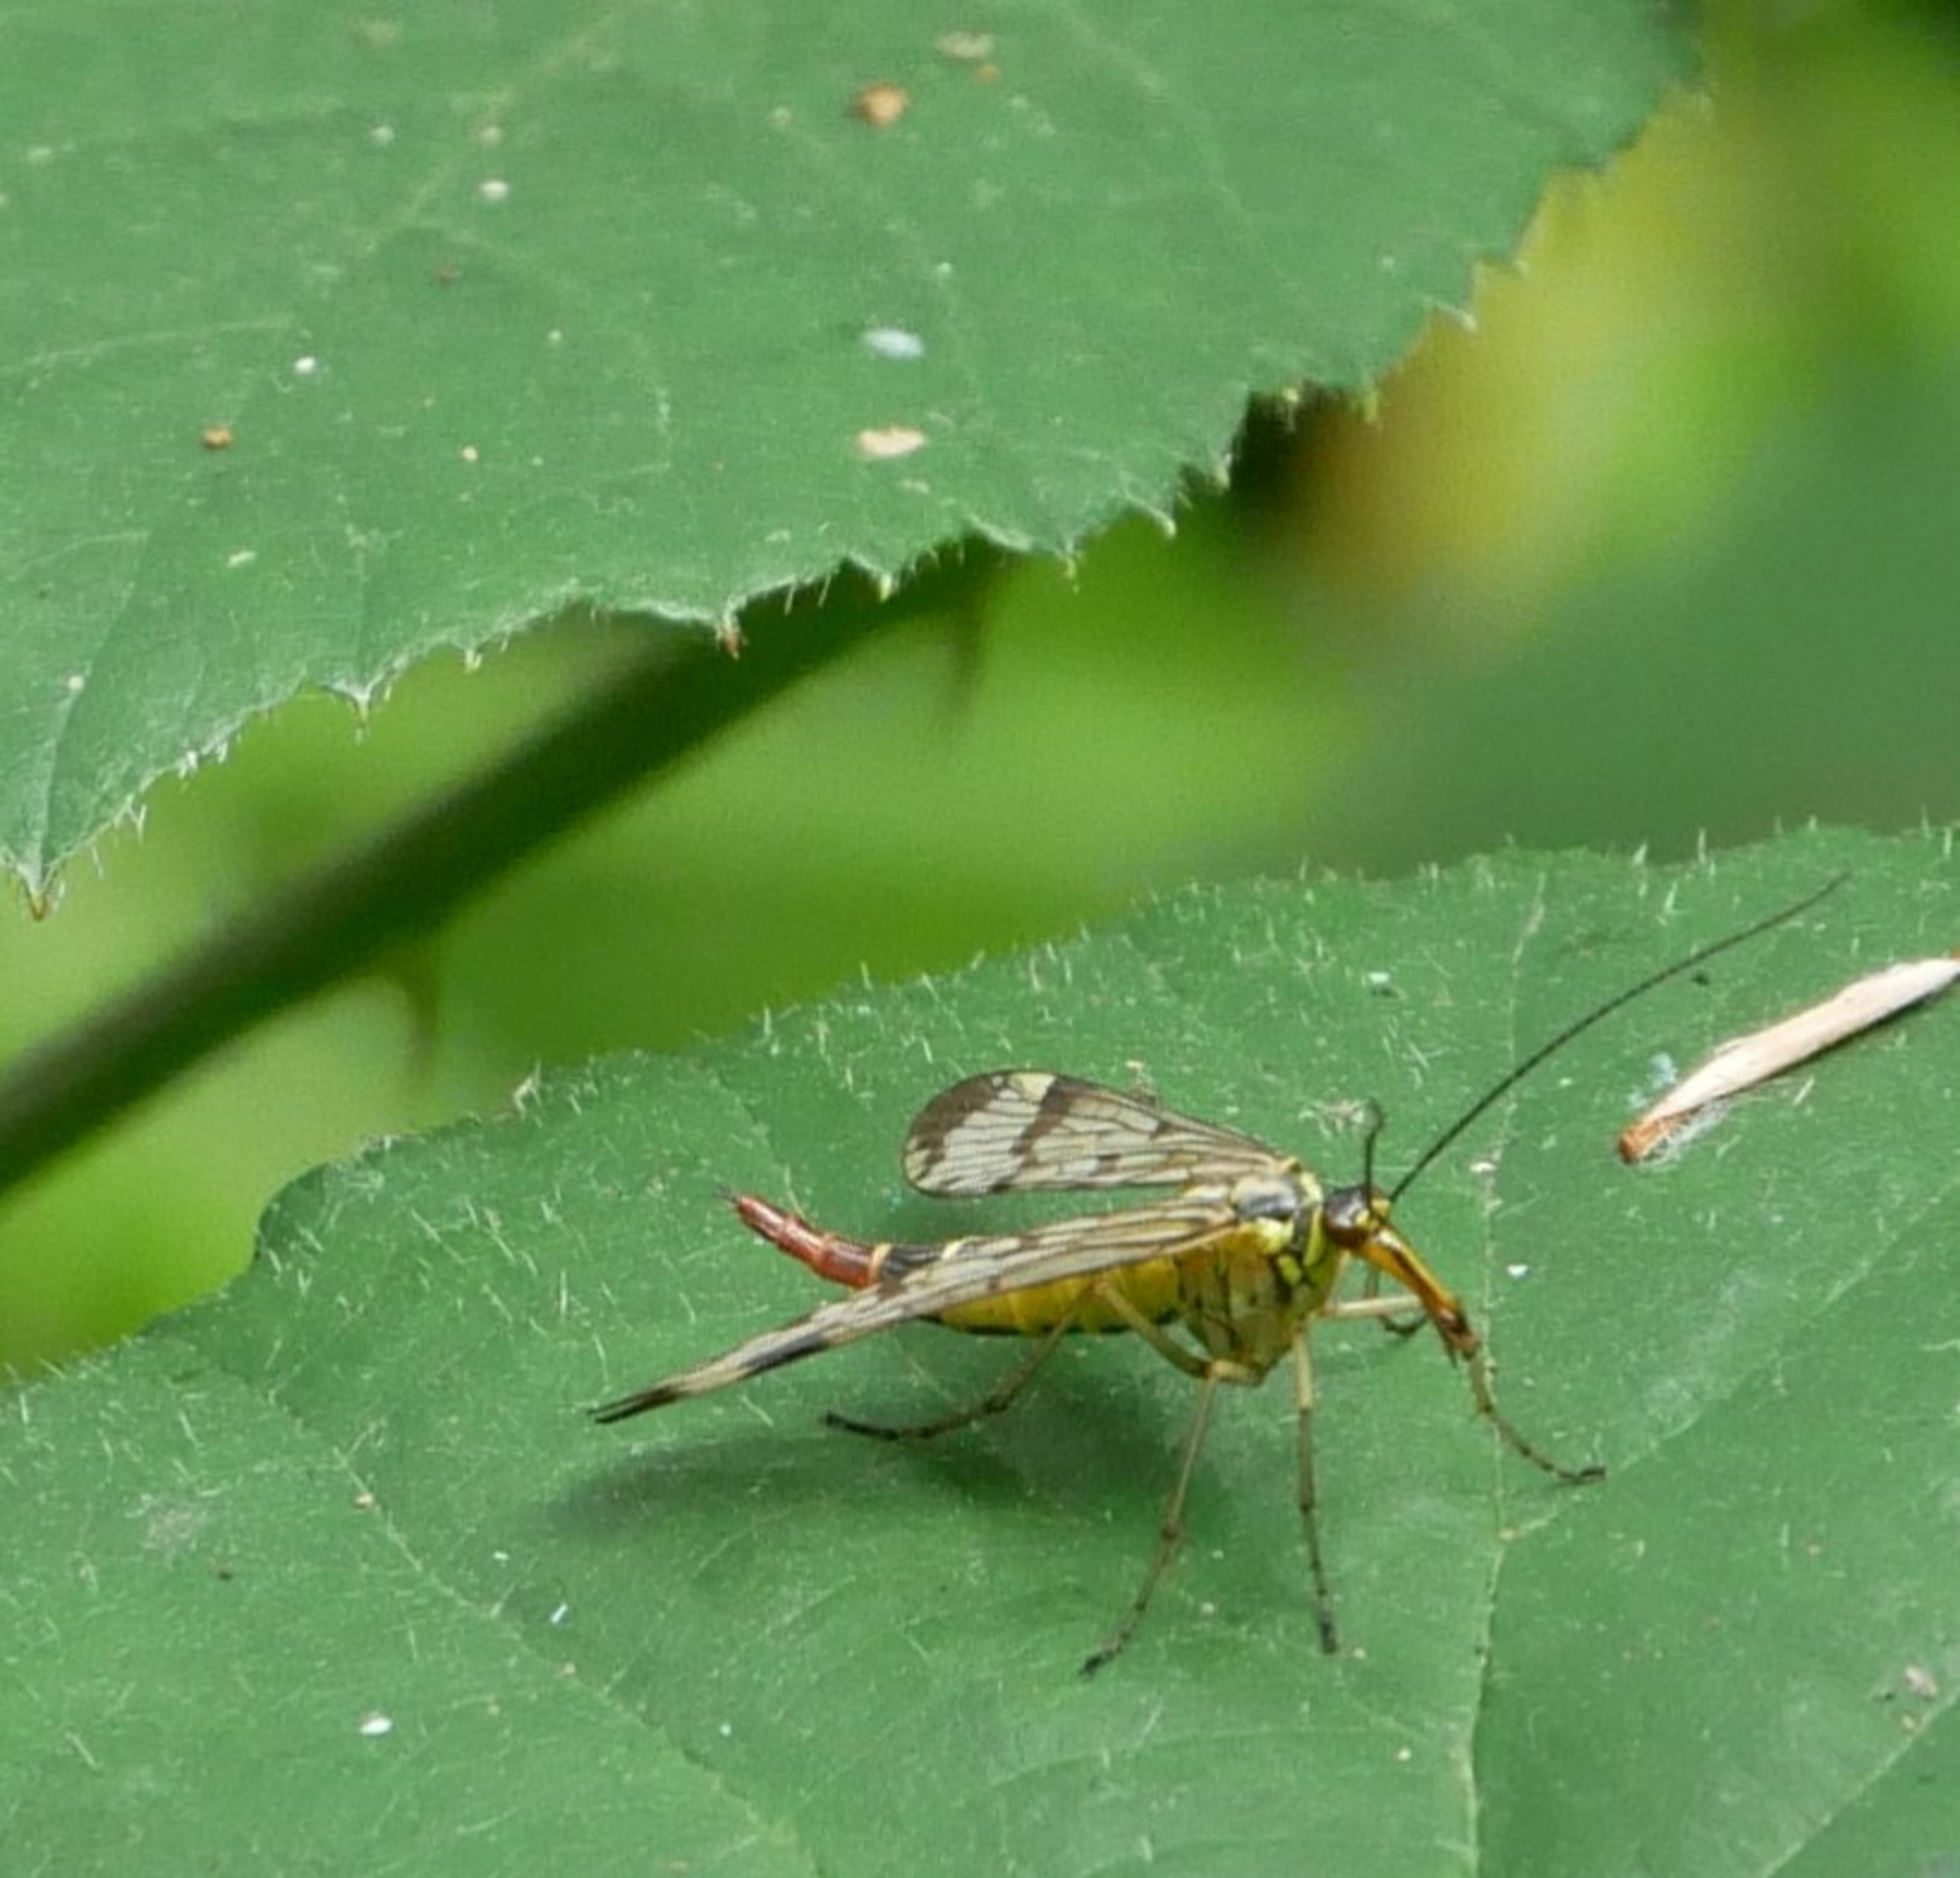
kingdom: Animalia
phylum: Arthropoda
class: Insecta
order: Mecoptera
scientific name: Mecoptera
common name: Skorpionsfluer
